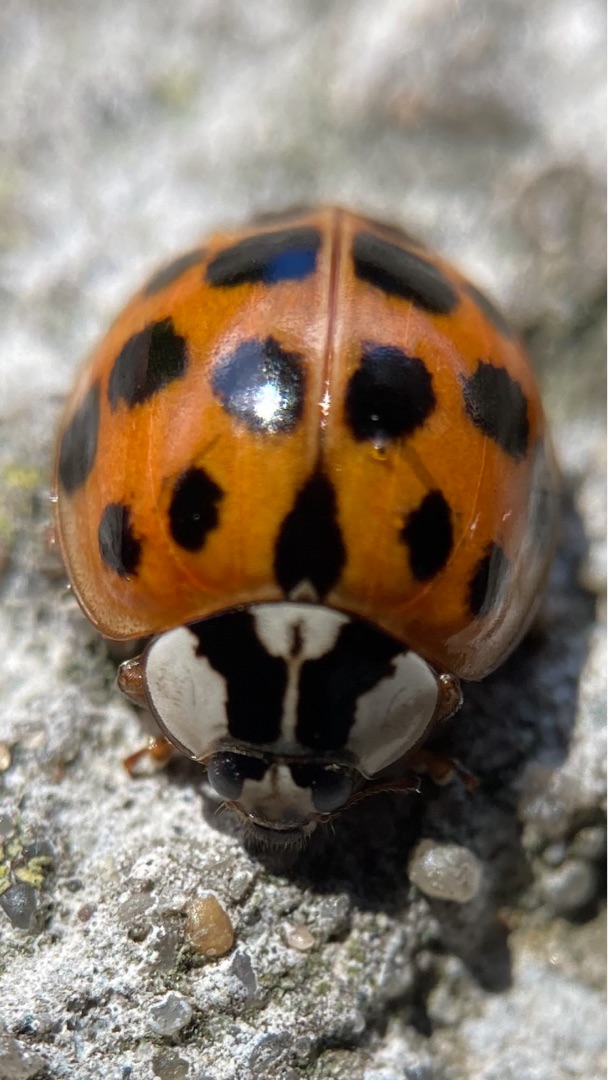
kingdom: Animalia
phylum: Arthropoda
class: Insecta
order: Coleoptera
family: Coccinellidae
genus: Harmonia
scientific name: Harmonia axyridis
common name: Harlekinmariehøne
